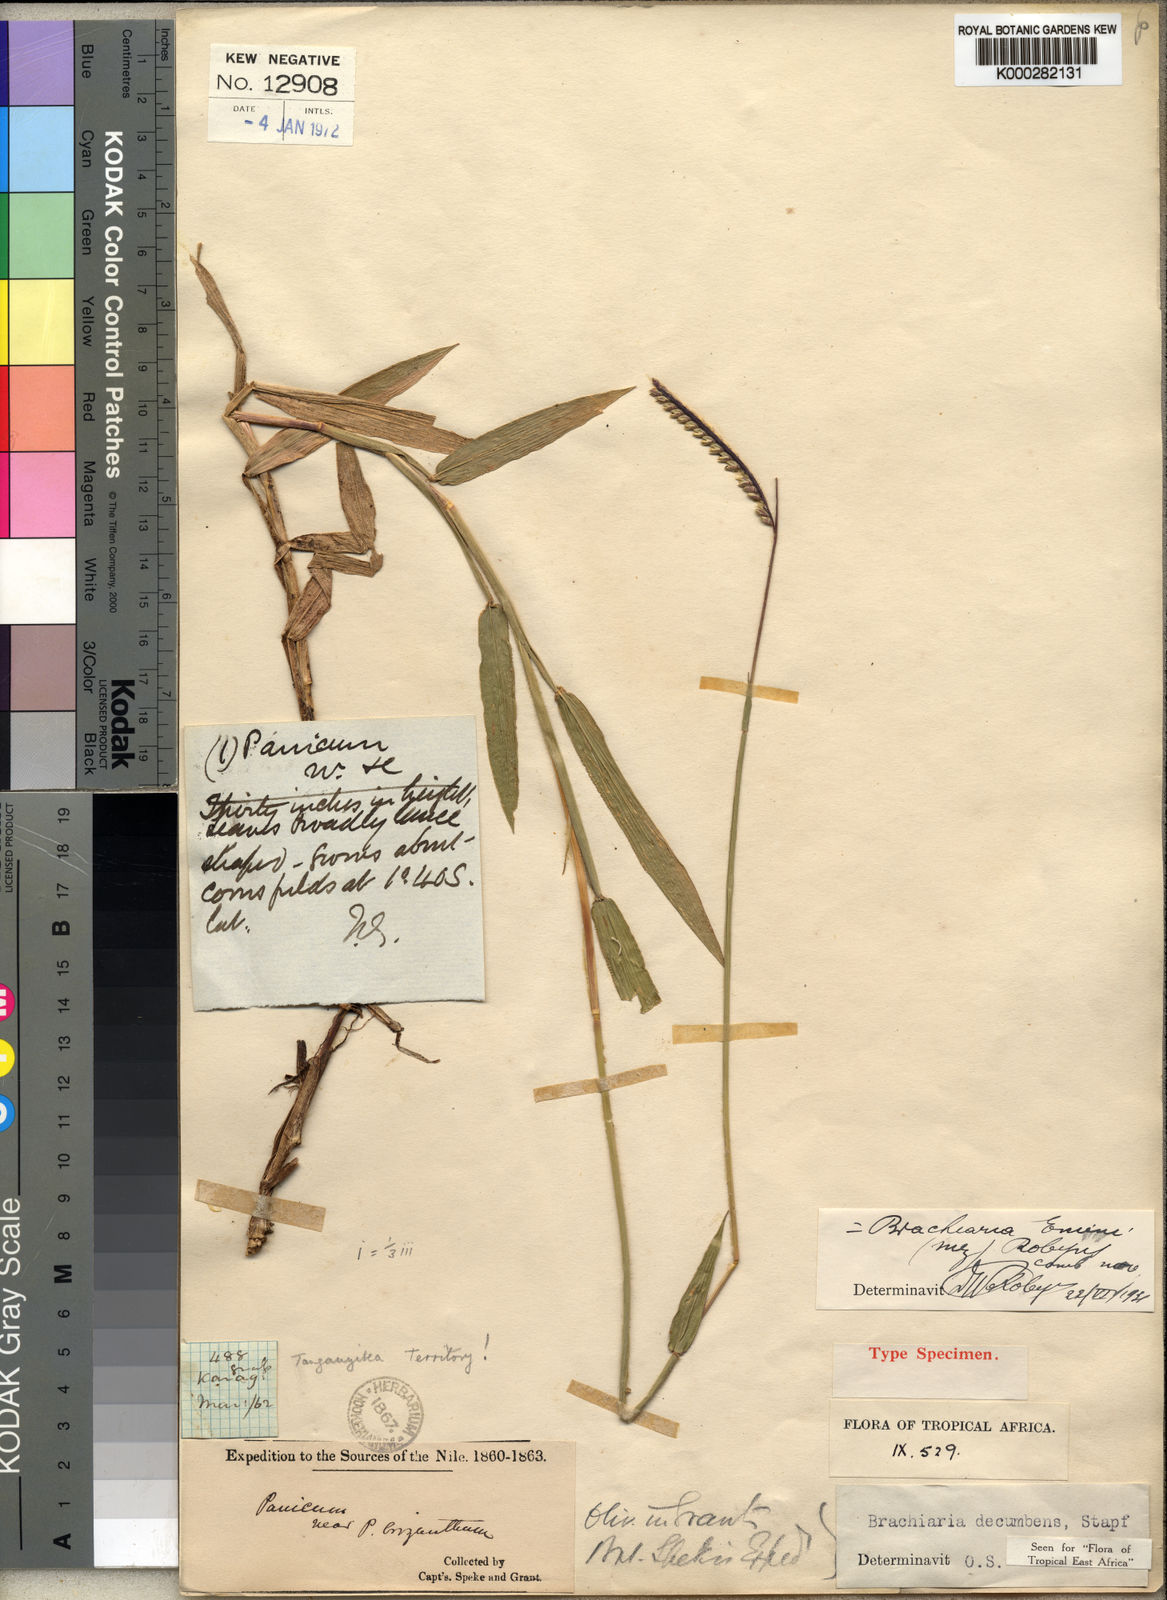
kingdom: Plantae
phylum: Tracheophyta
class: Liliopsida
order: Poales
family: Poaceae
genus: Urochloa
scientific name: Urochloa eminii
